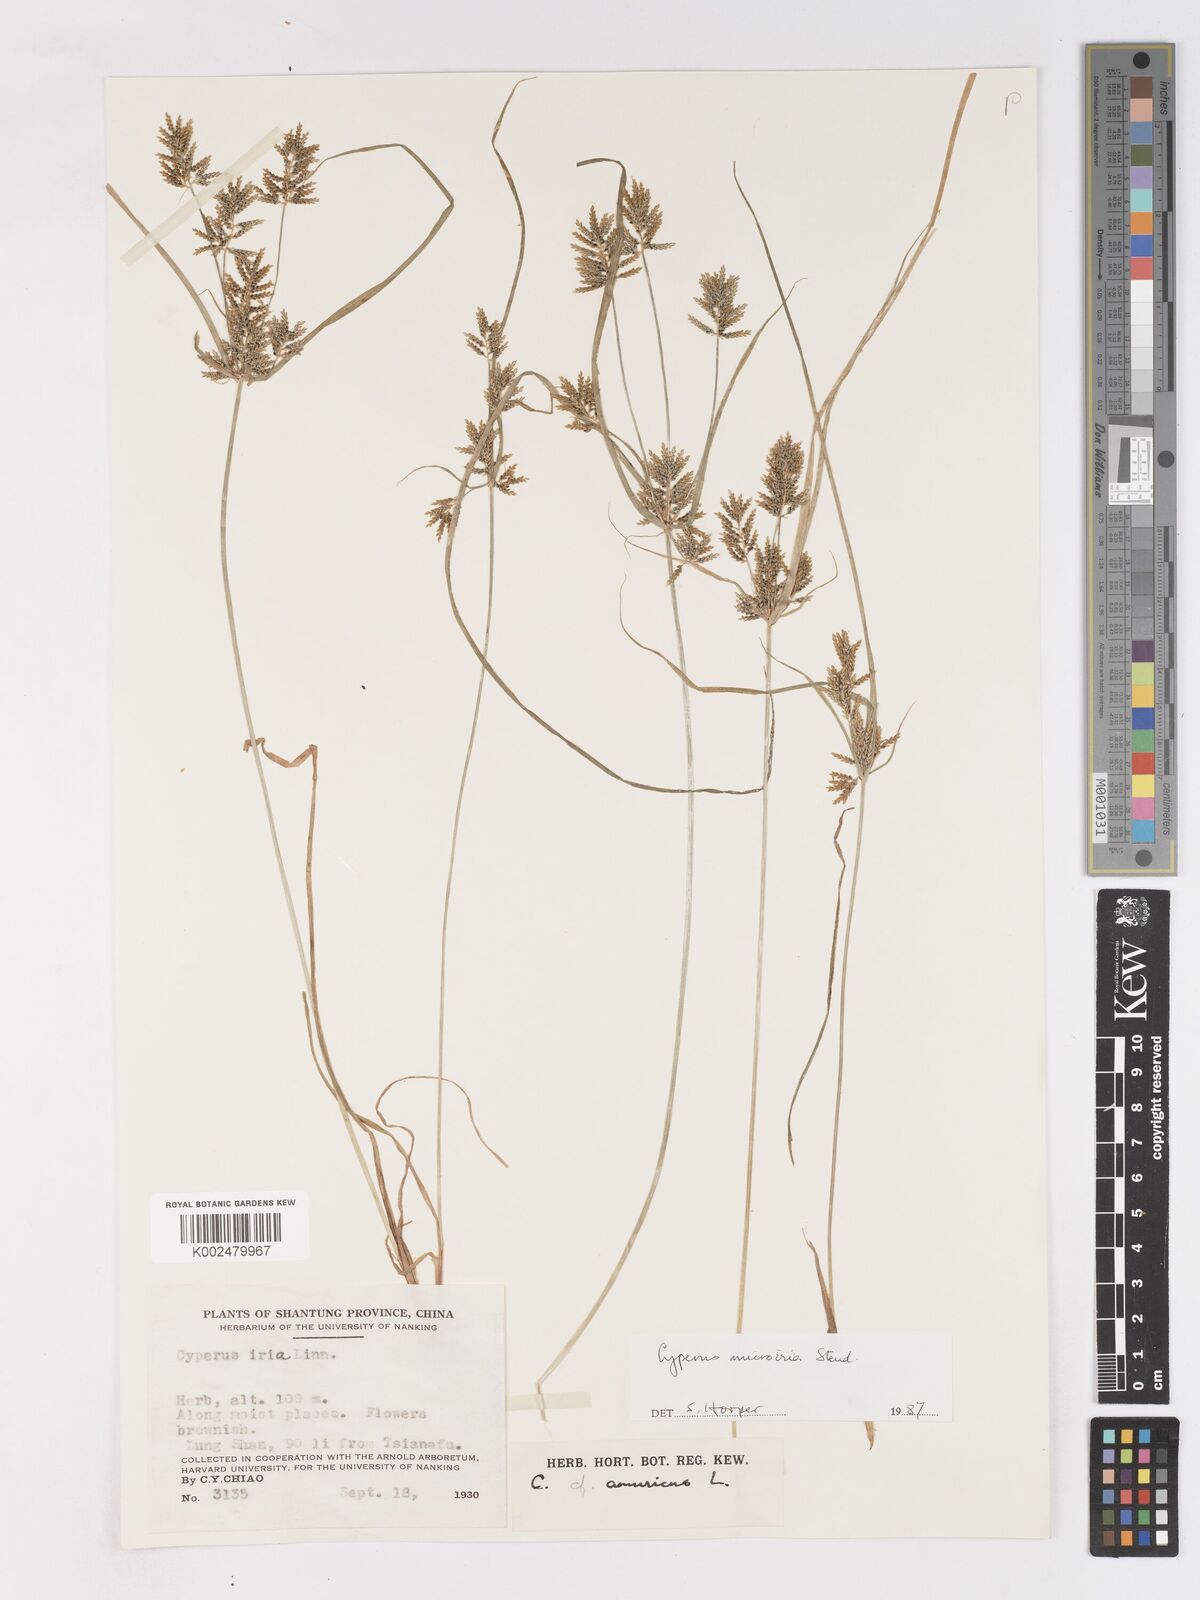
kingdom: Plantae
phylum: Tracheophyta
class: Liliopsida
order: Poales
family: Cyperaceae
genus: Cyperus
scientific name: Cyperus microiria
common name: Asian flatsedge
